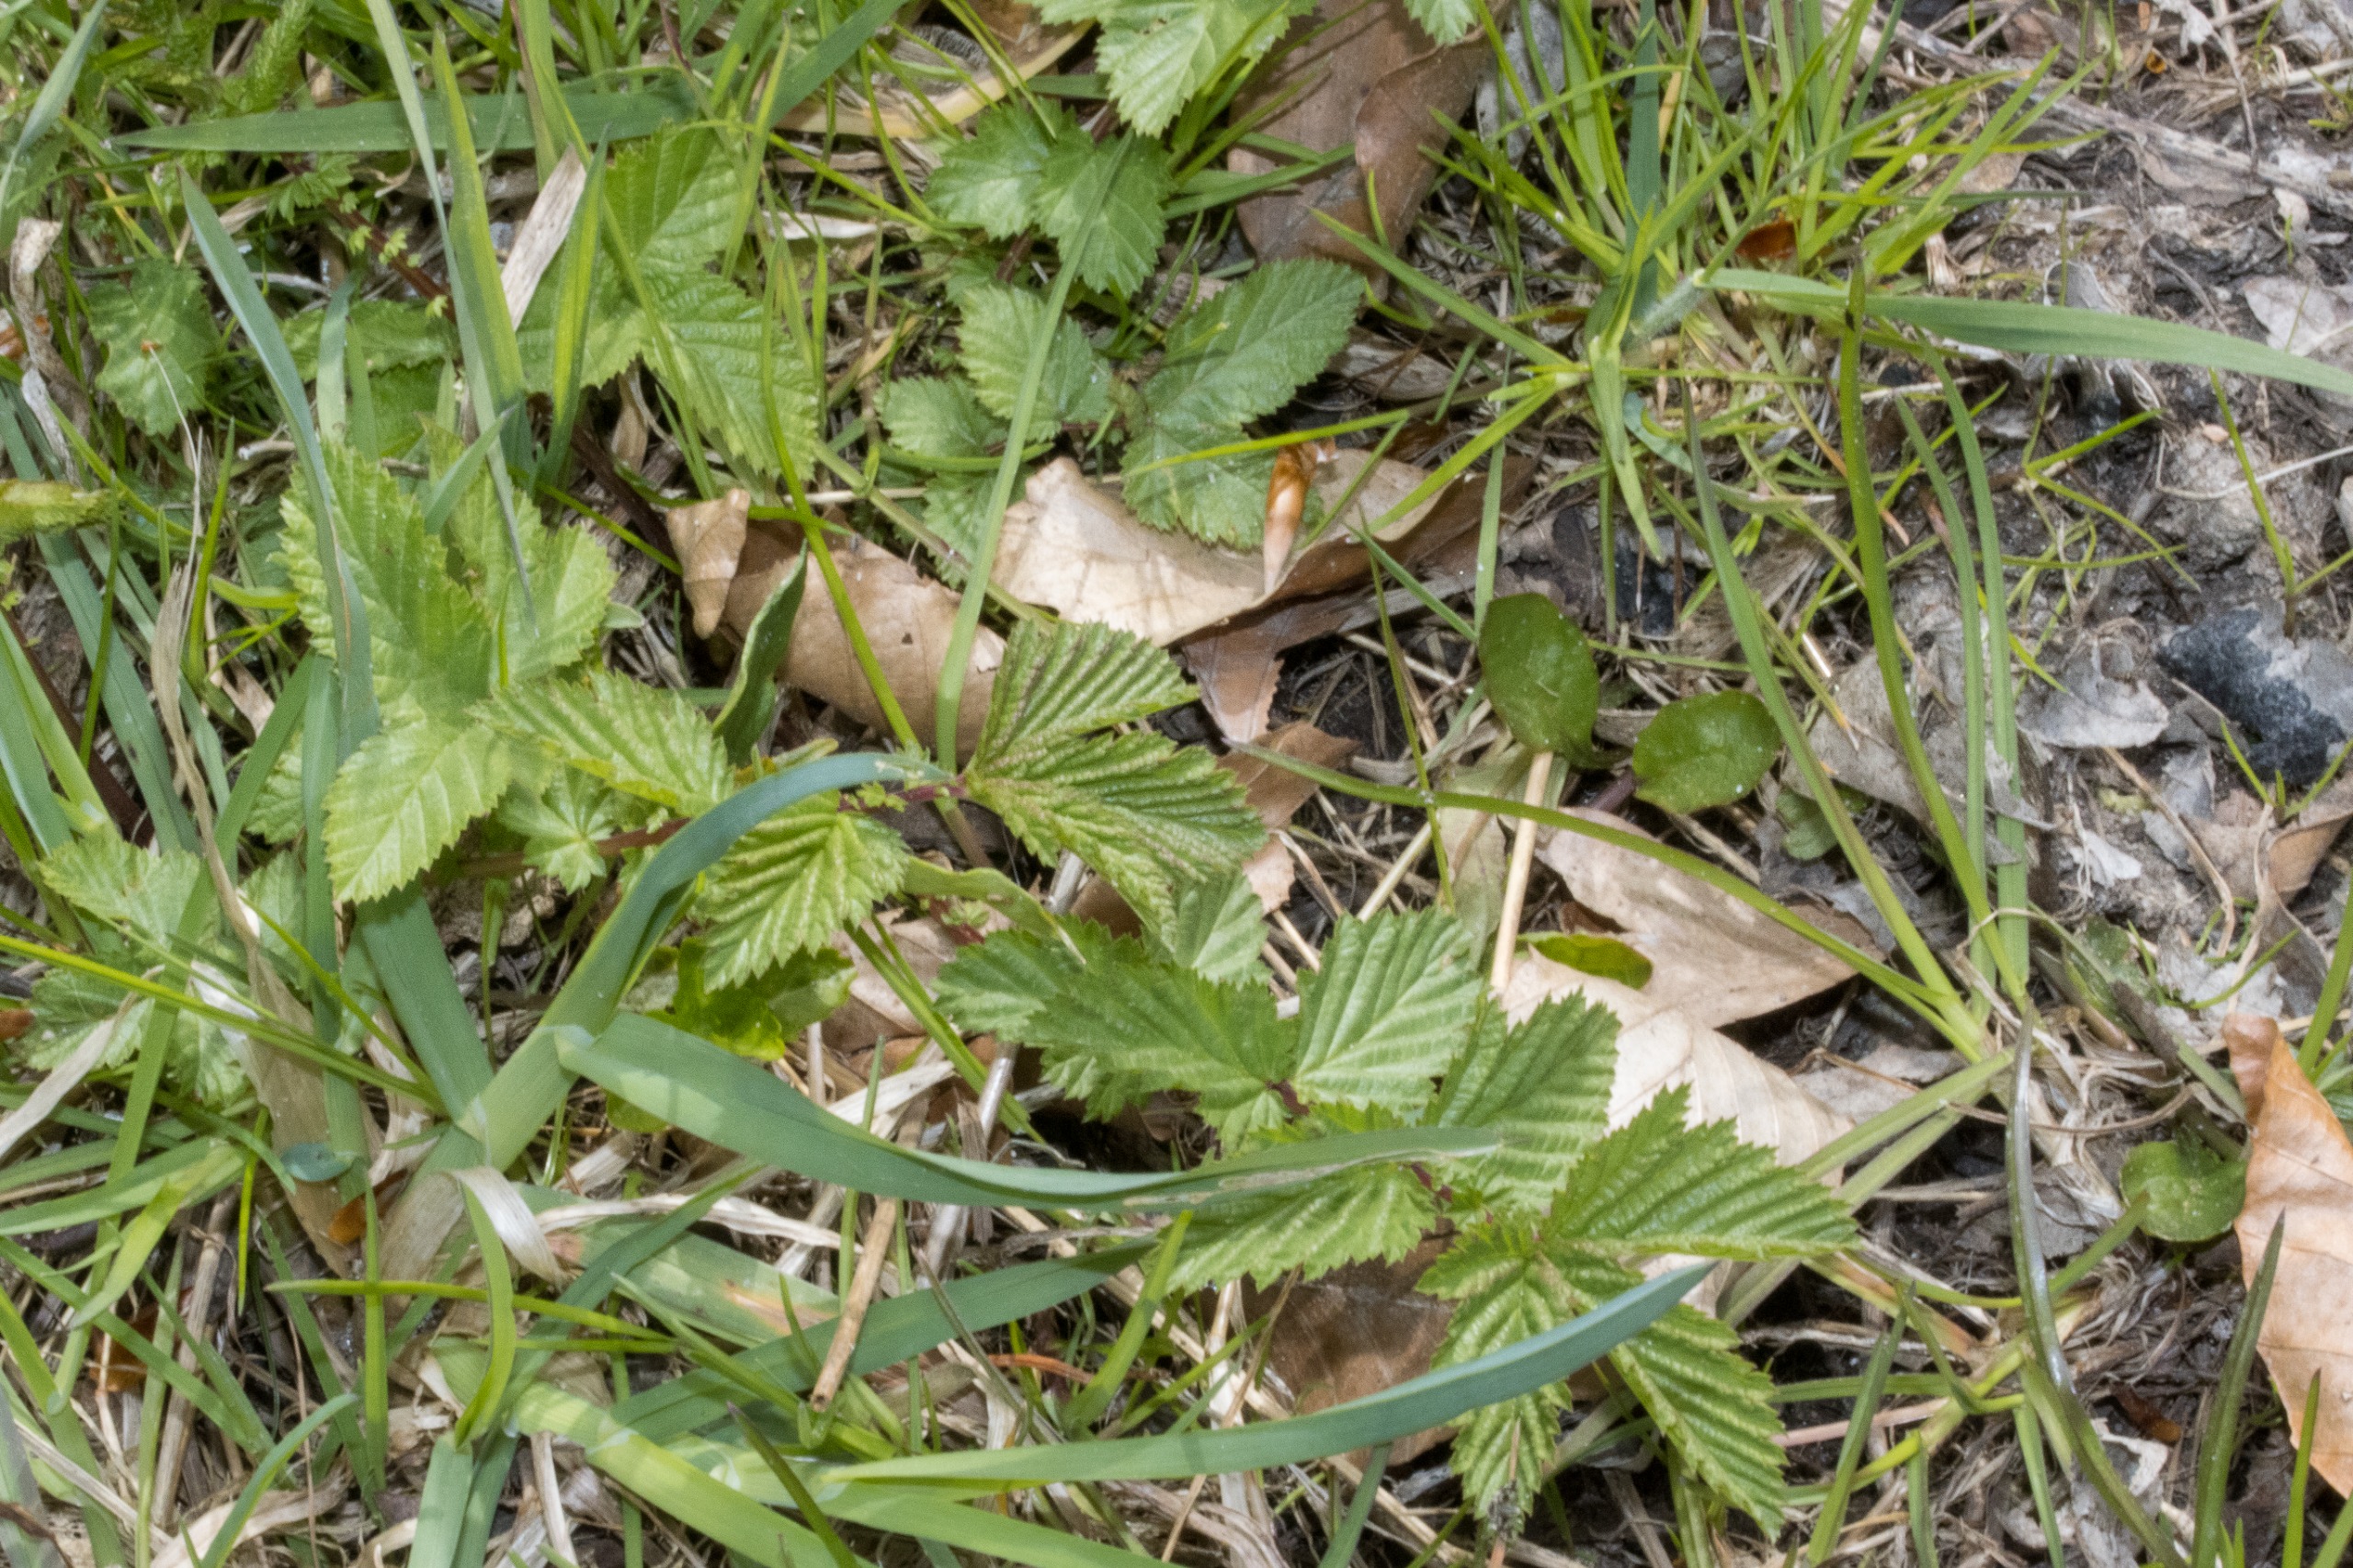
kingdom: Plantae
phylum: Tracheophyta
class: Magnoliopsida
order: Rosales
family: Rosaceae
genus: Filipendula
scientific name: Filipendula ulmaria
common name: Almindelig mjødurt
